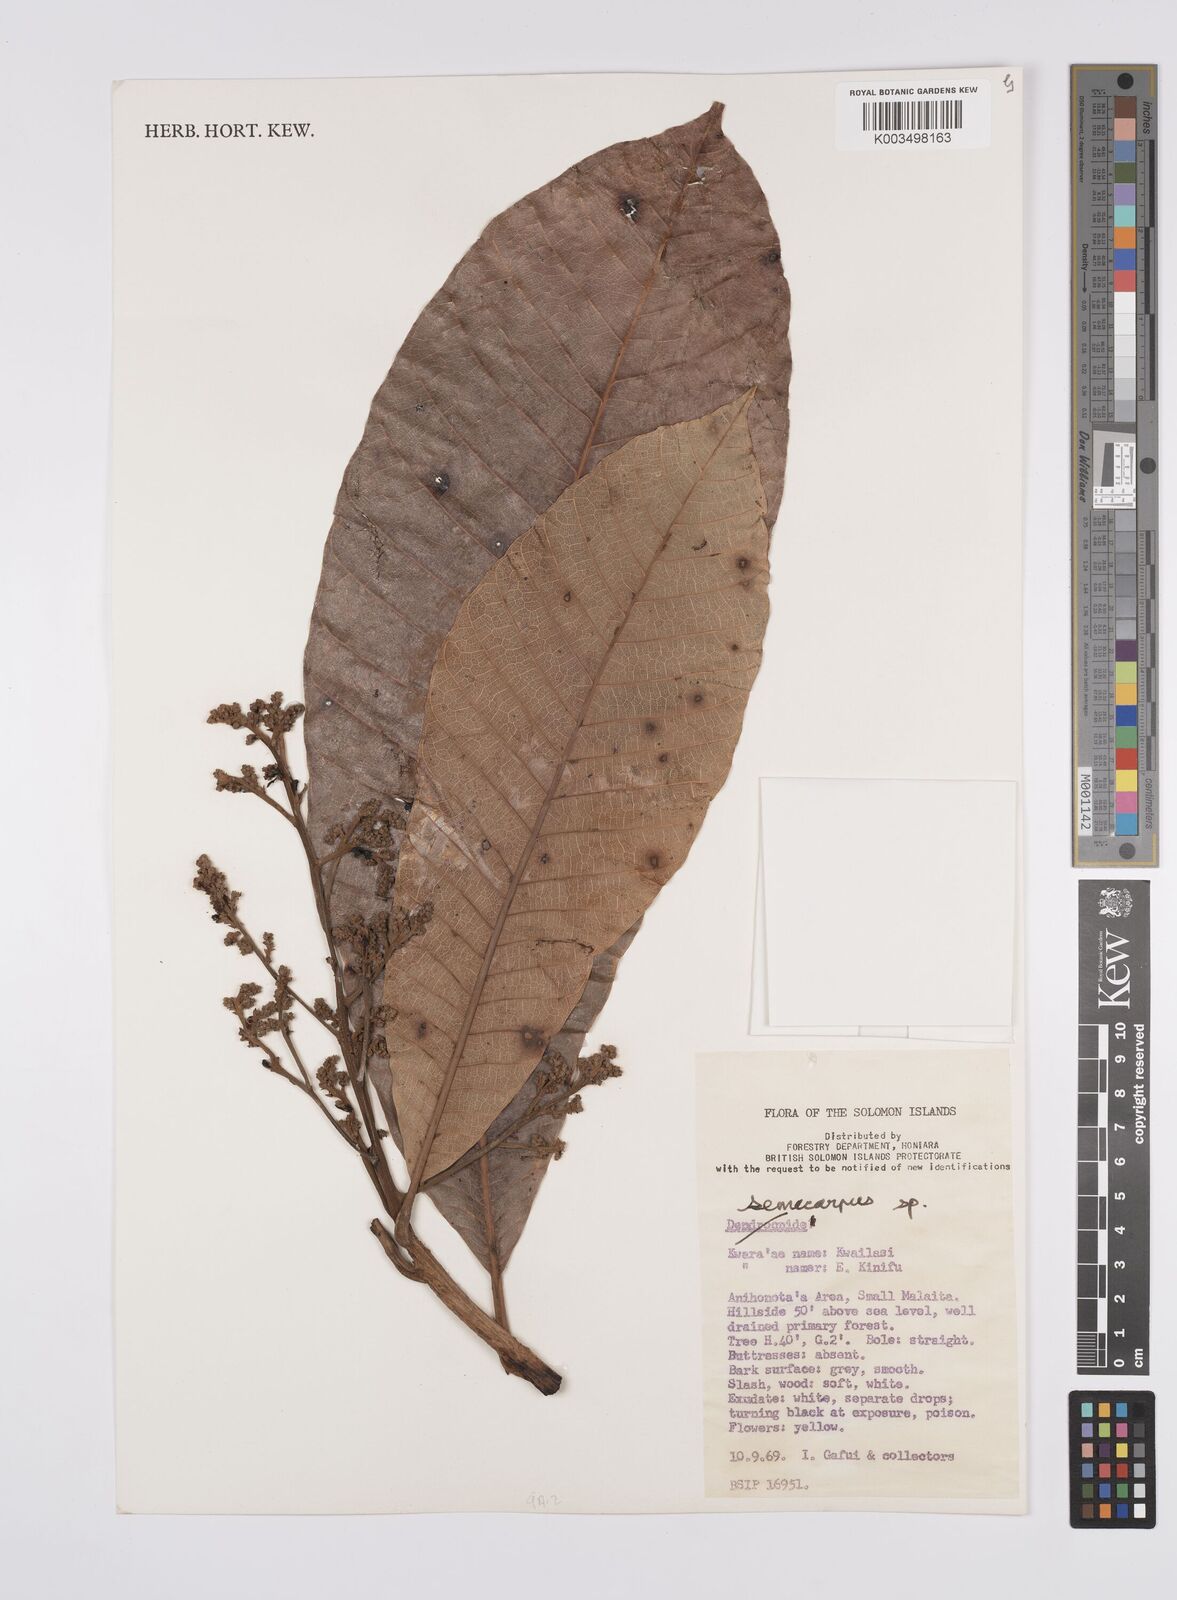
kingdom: Plantae
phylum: Tracheophyta
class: Magnoliopsida
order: Sapindales
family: Anacardiaceae
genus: Semecarpus
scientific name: Semecarpus
